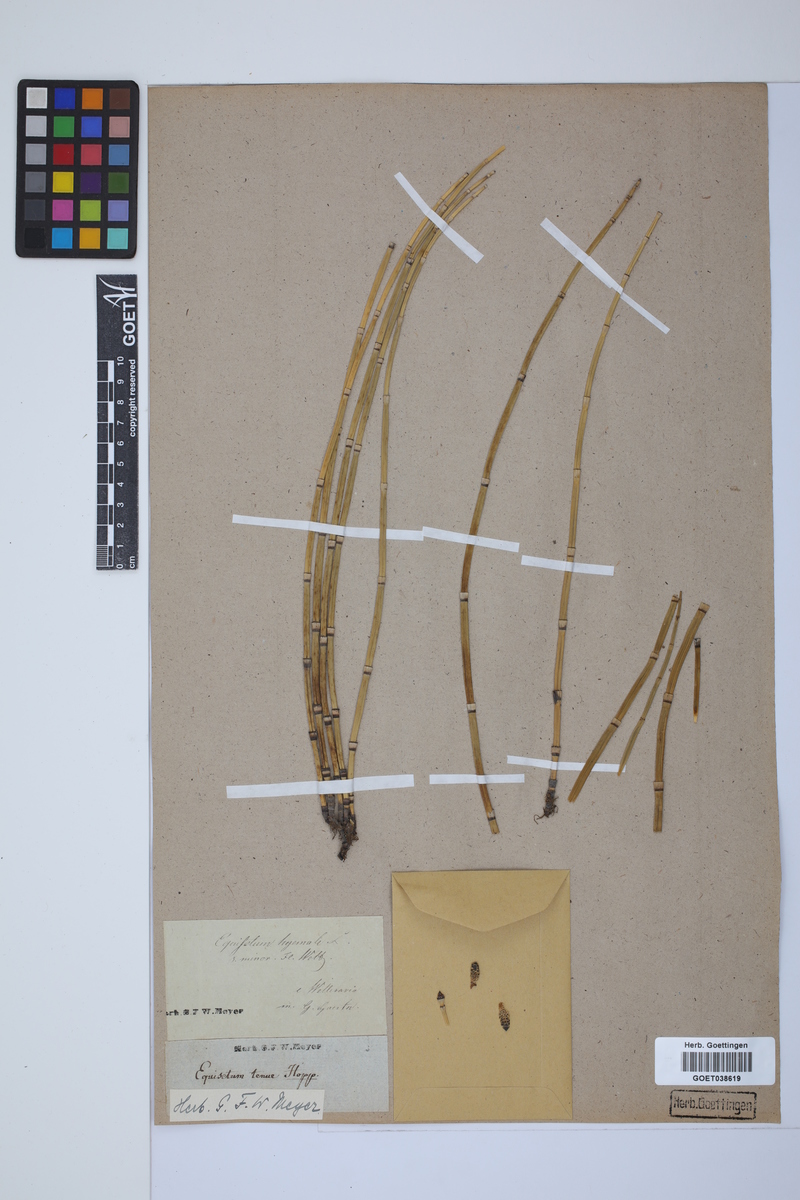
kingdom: Plantae
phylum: Tracheophyta
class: Polypodiopsida
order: Equisetales
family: Equisetaceae
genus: Equisetum
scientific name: Equisetum hyemale
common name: Rough horsetail
